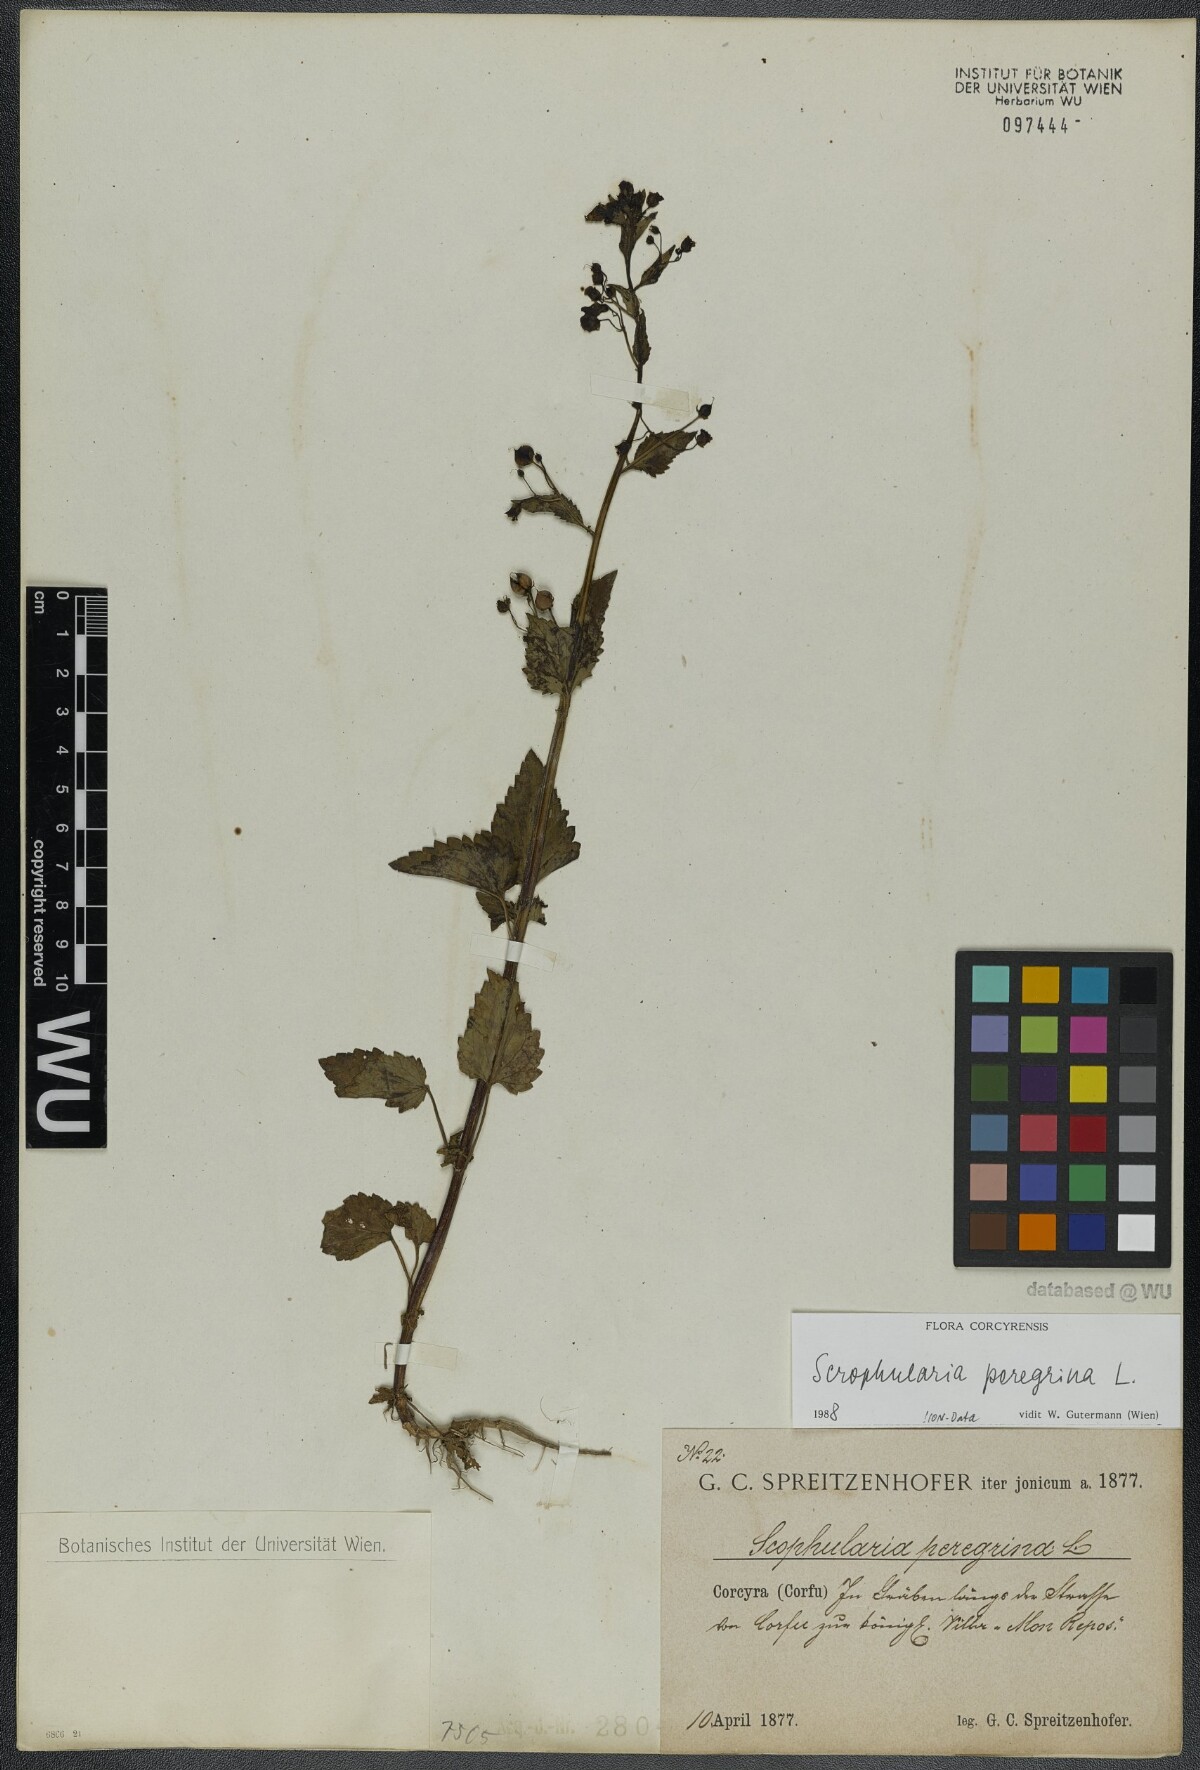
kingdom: Plantae
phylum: Tracheophyta
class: Magnoliopsida
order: Lamiales
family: Scrophulariaceae
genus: Scrophularia
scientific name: Scrophularia peregrina
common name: Mediterranean figwort
